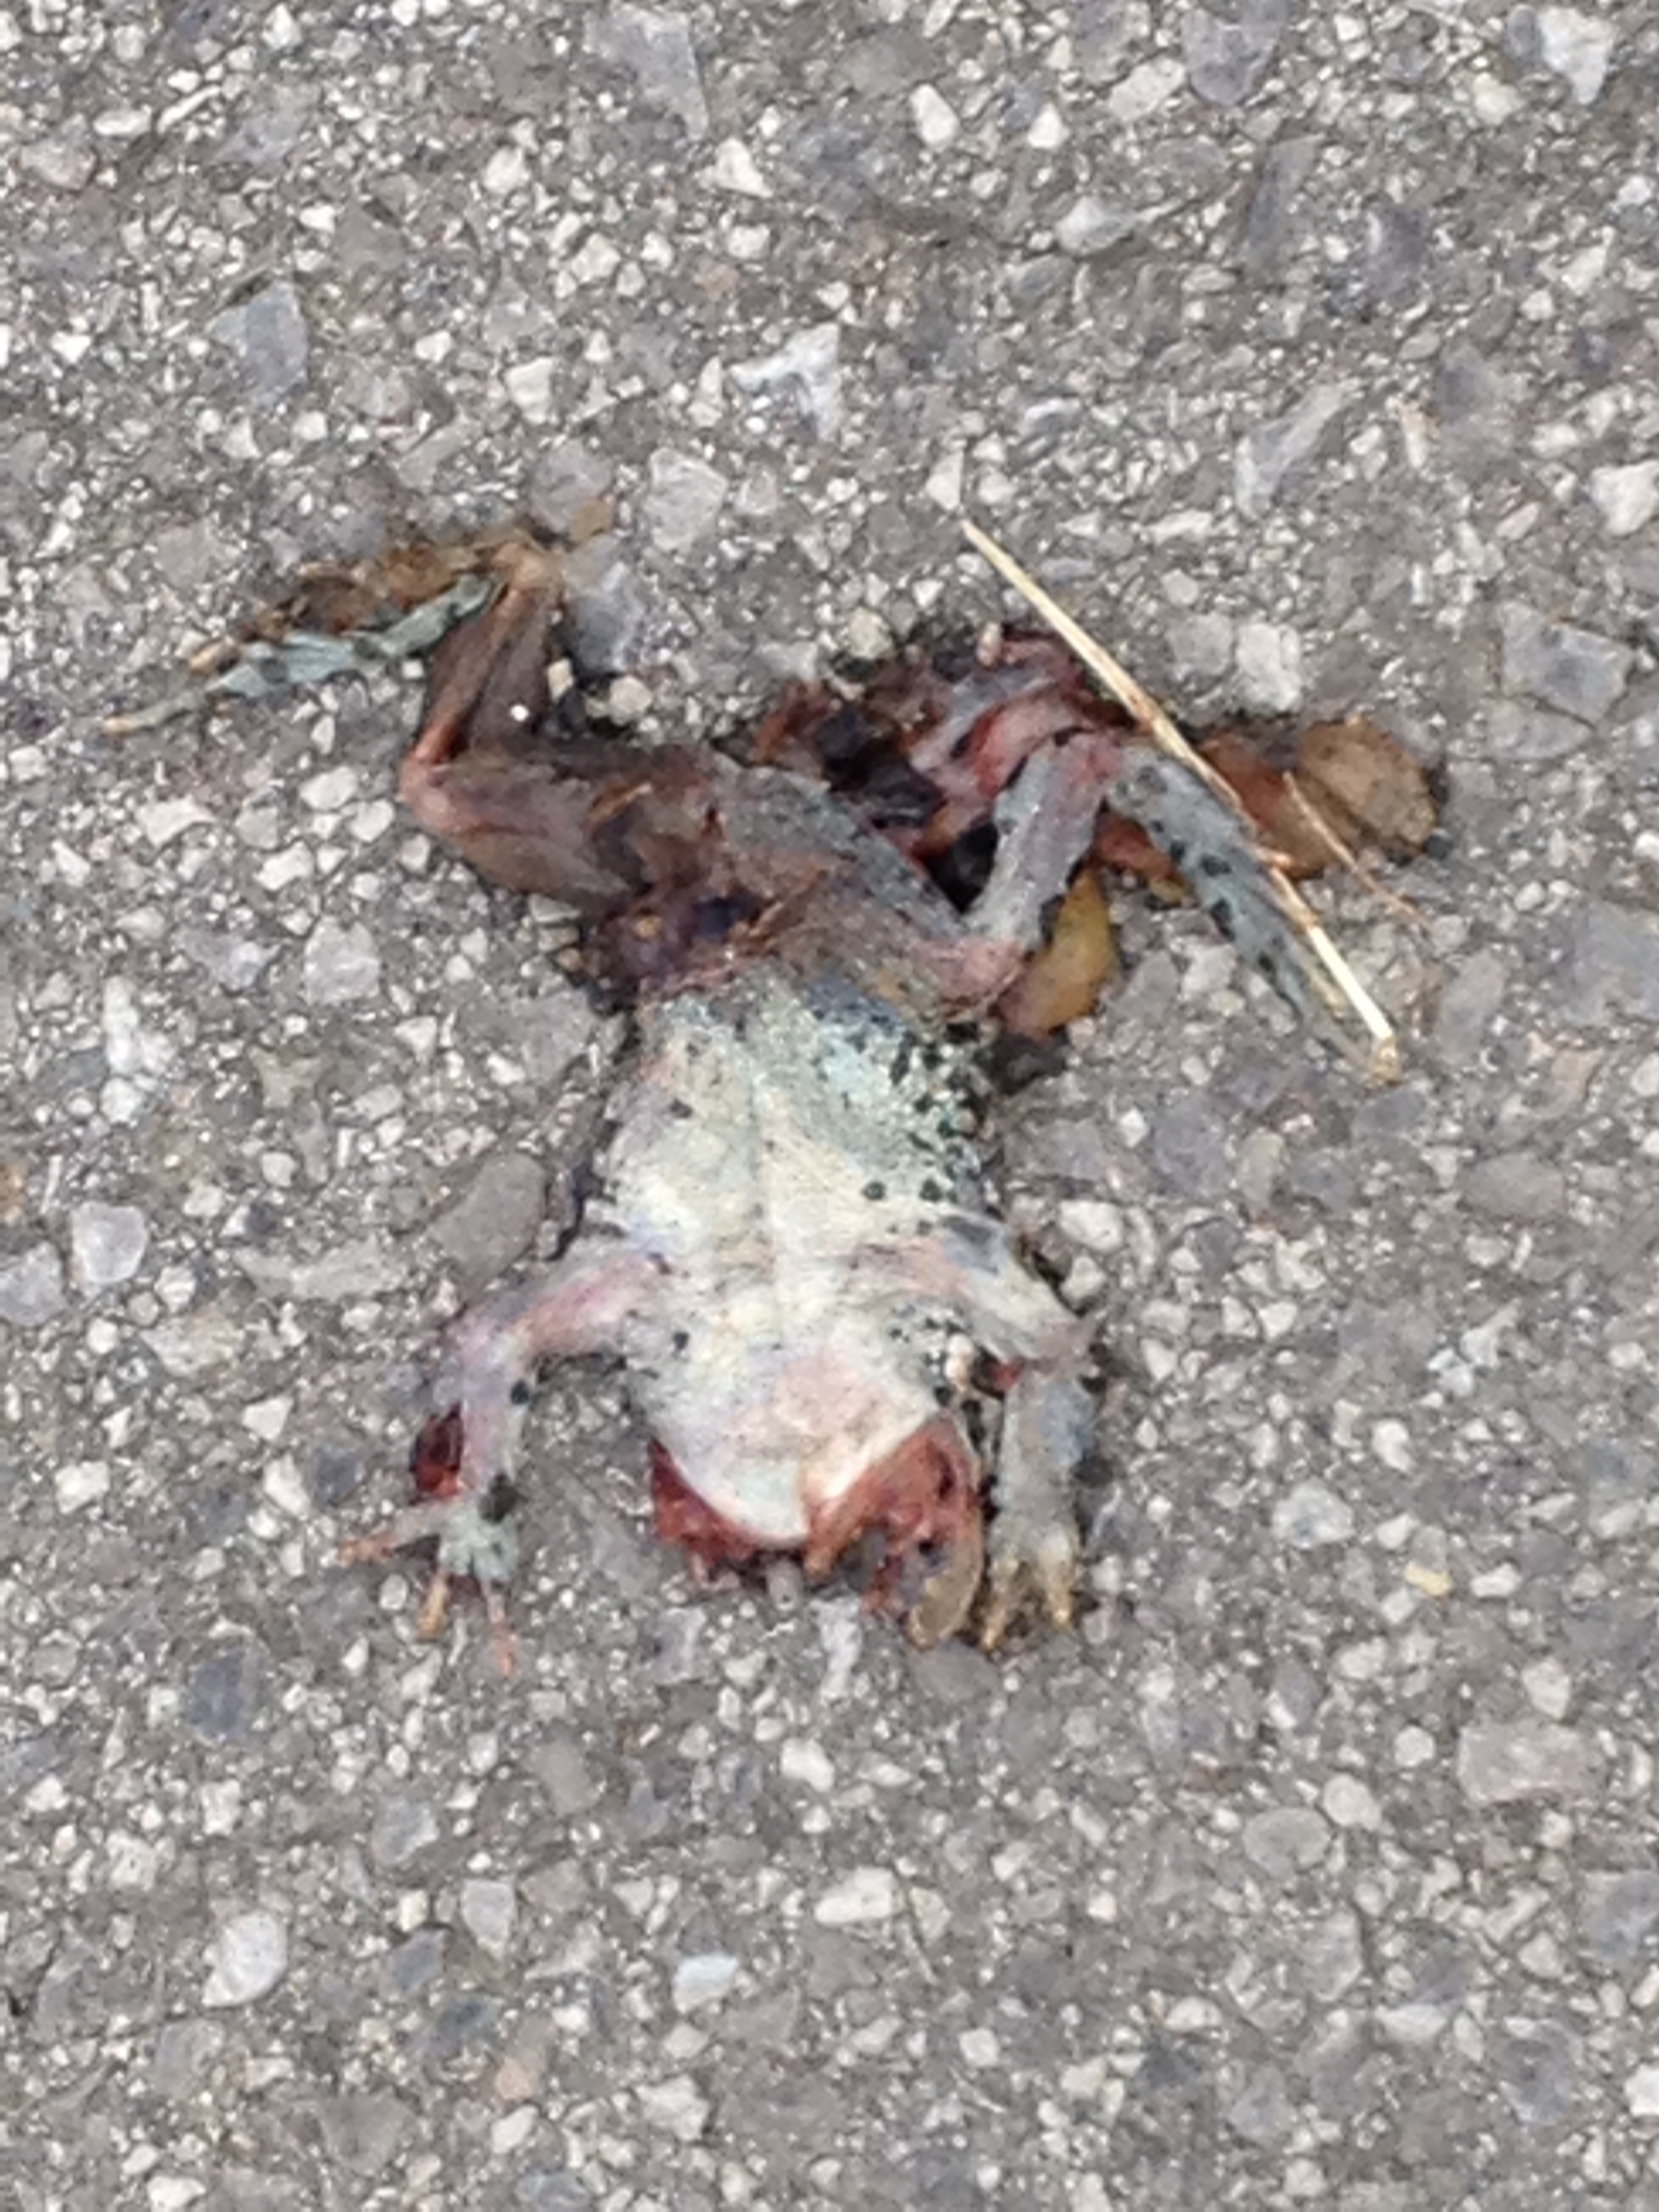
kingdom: Animalia
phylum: Chordata
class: Amphibia
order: Anura
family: Bufonidae
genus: Bufotes
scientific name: Bufotes viridis
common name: European green toad
